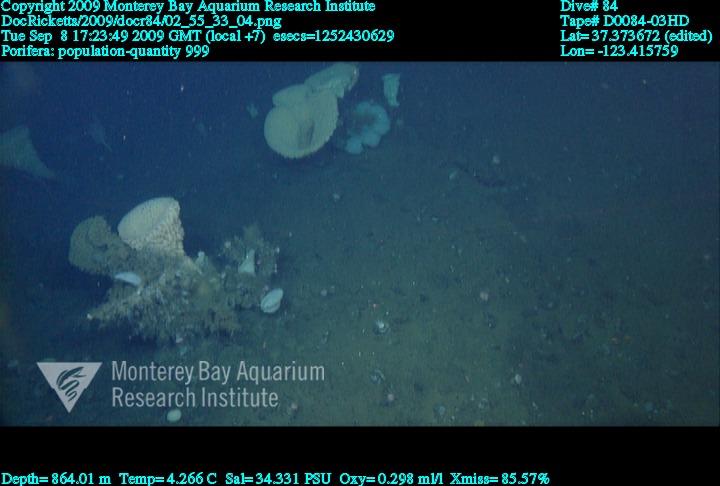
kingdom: Animalia
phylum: Porifera
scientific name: Porifera
